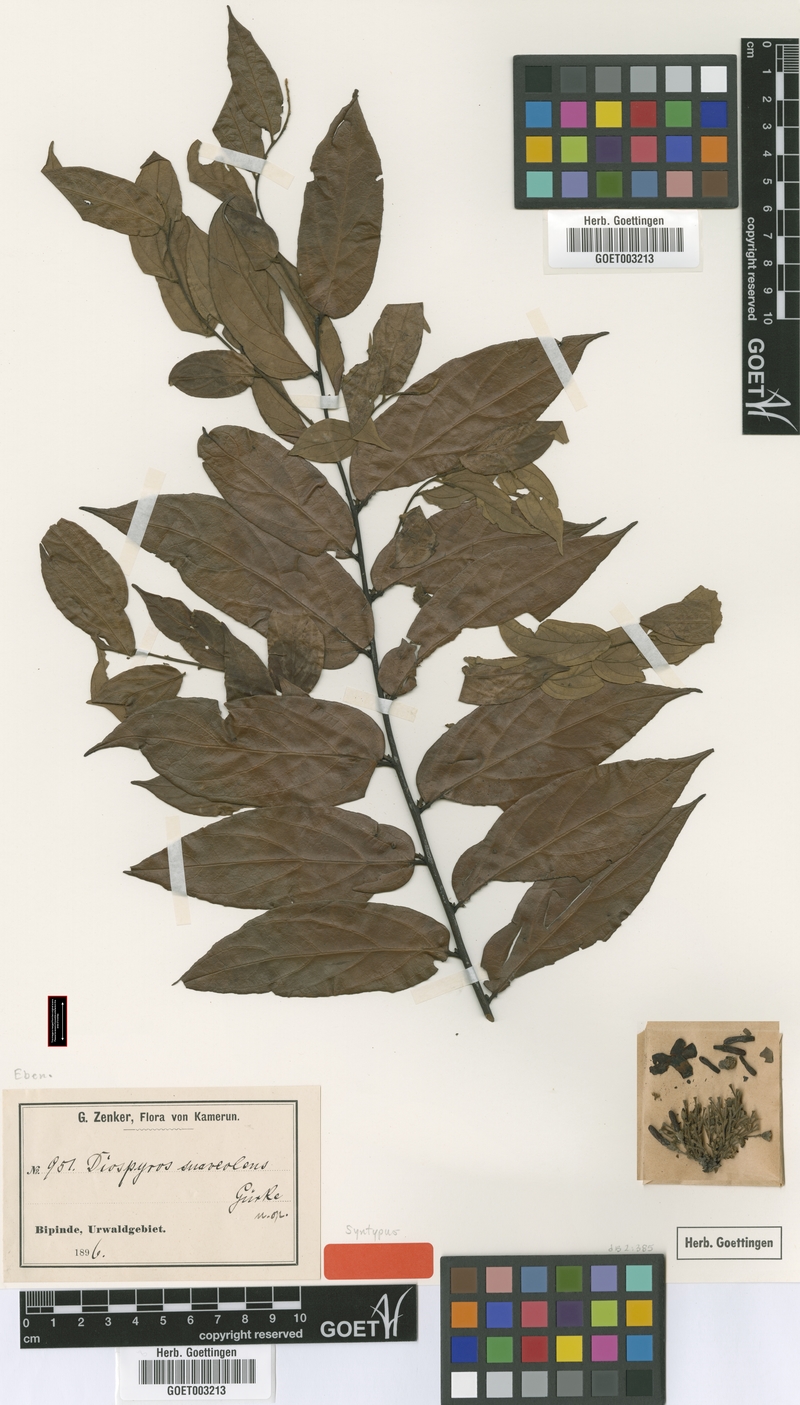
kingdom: Plantae
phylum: Tracheophyta
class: Magnoliopsida
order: Ericales
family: Ebenaceae
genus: Diospyros
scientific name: Diospyros suaveolens
